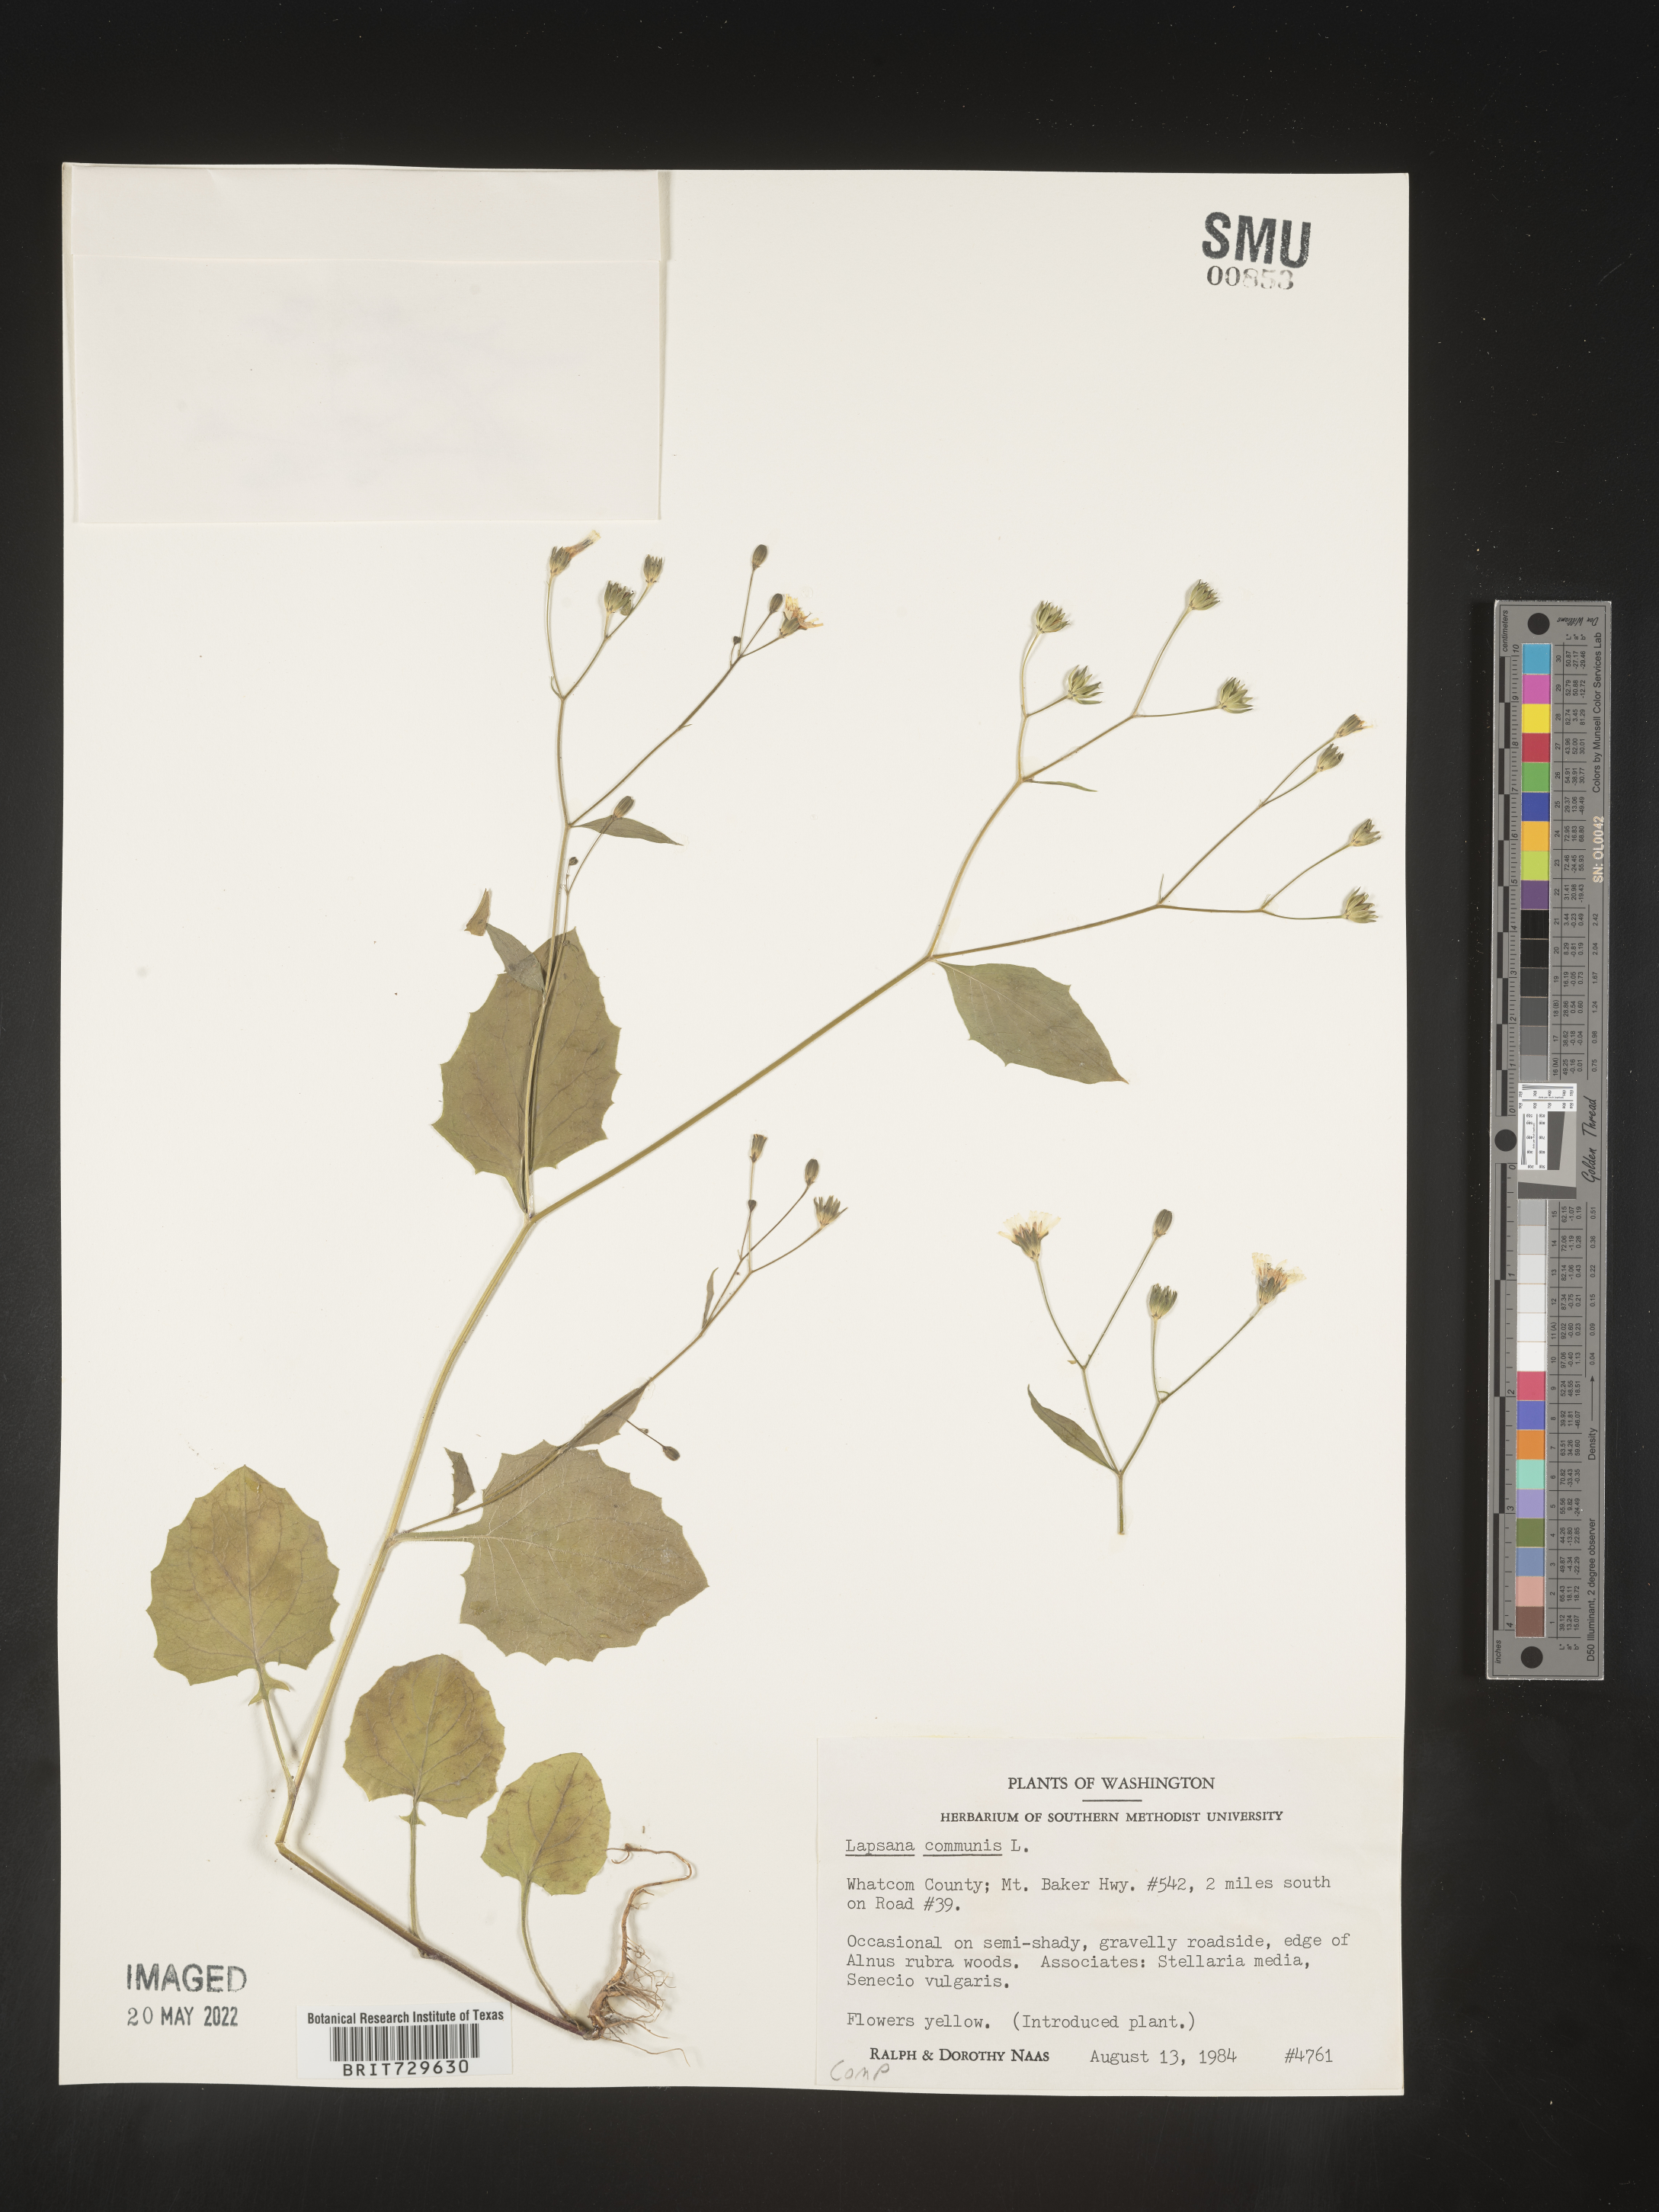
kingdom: Plantae
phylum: Tracheophyta
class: Magnoliopsida
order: Asterales
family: Asteraceae
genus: Lapsana
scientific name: Lapsana
